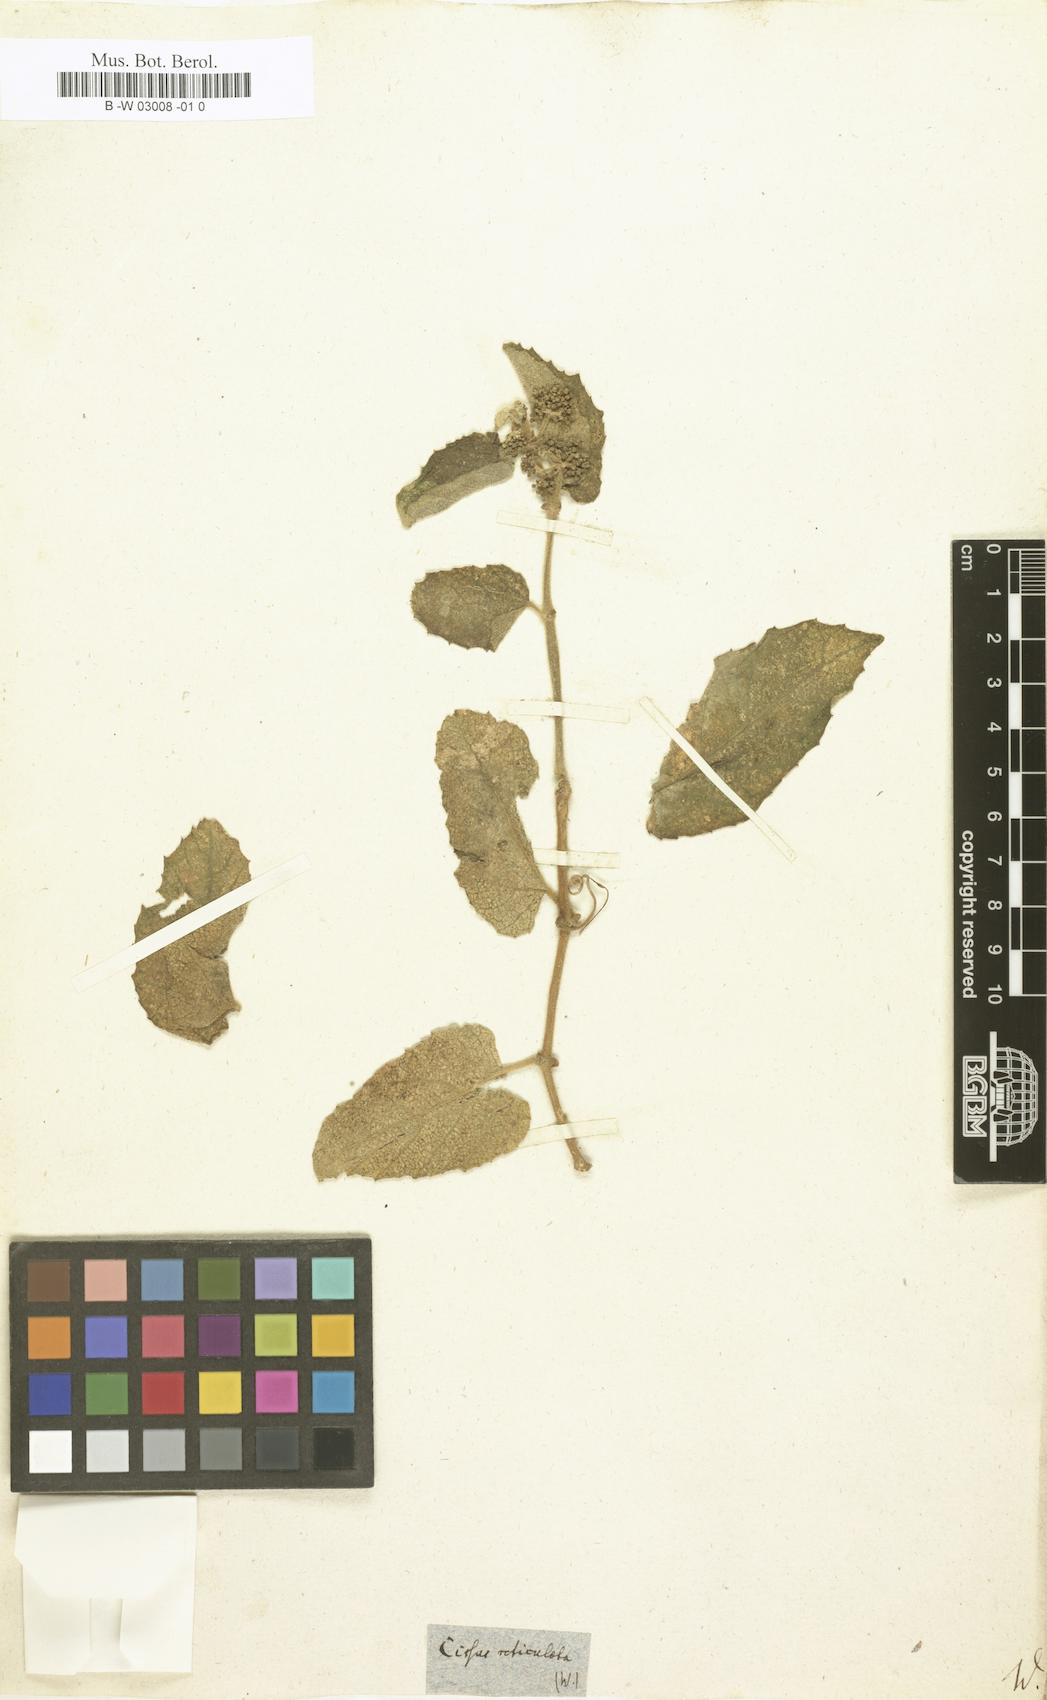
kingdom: Plantae
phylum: Tracheophyta
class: Magnoliopsida
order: Vitales
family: Vitaceae
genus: Cissus
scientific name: Cissus verticillata
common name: Princess vine
